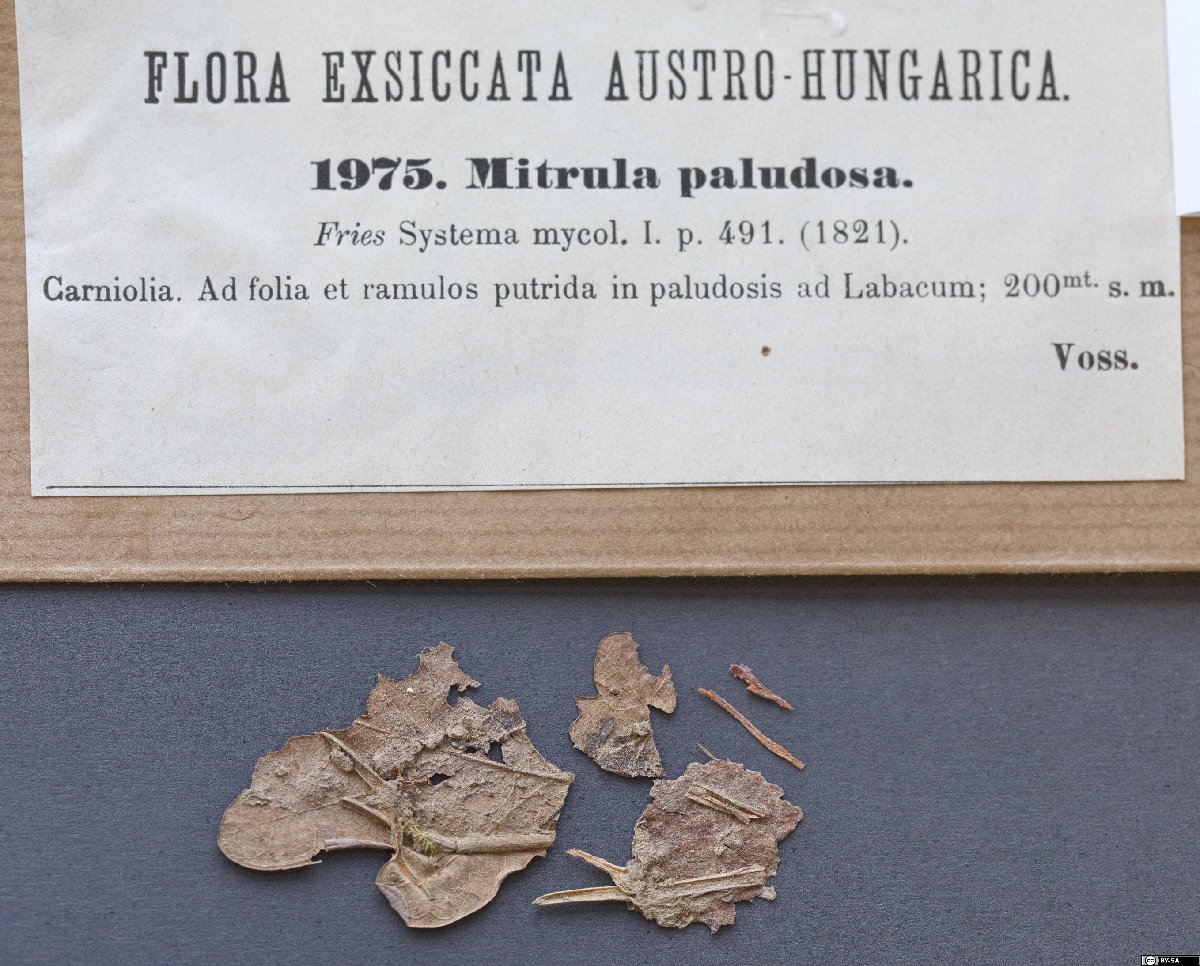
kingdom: Fungi
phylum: Ascomycota
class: Leotiomycetes
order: Helotiales
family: Cenangiaceae
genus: Mitrula
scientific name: Mitrula paludosa
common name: Bog beacon
